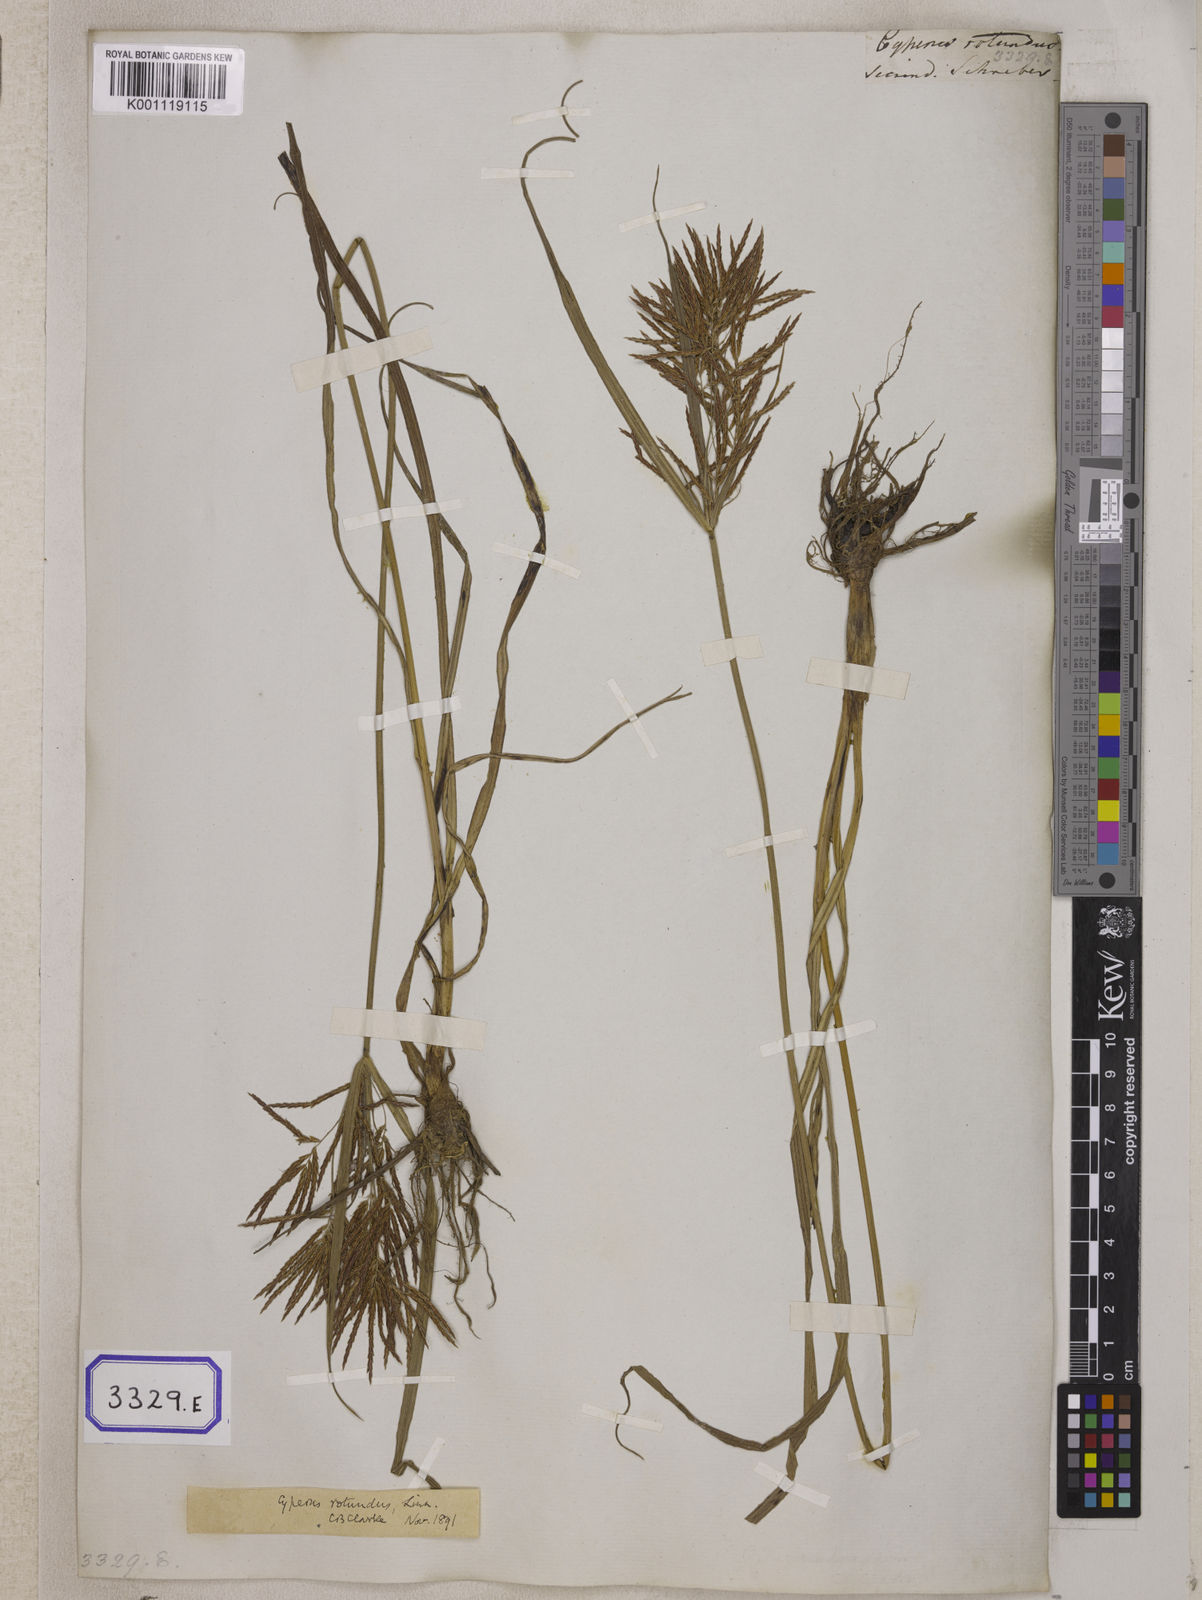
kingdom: Plantae
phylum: Tracheophyta
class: Liliopsida
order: Poales
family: Cyperaceae
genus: Cyperus
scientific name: Cyperus
